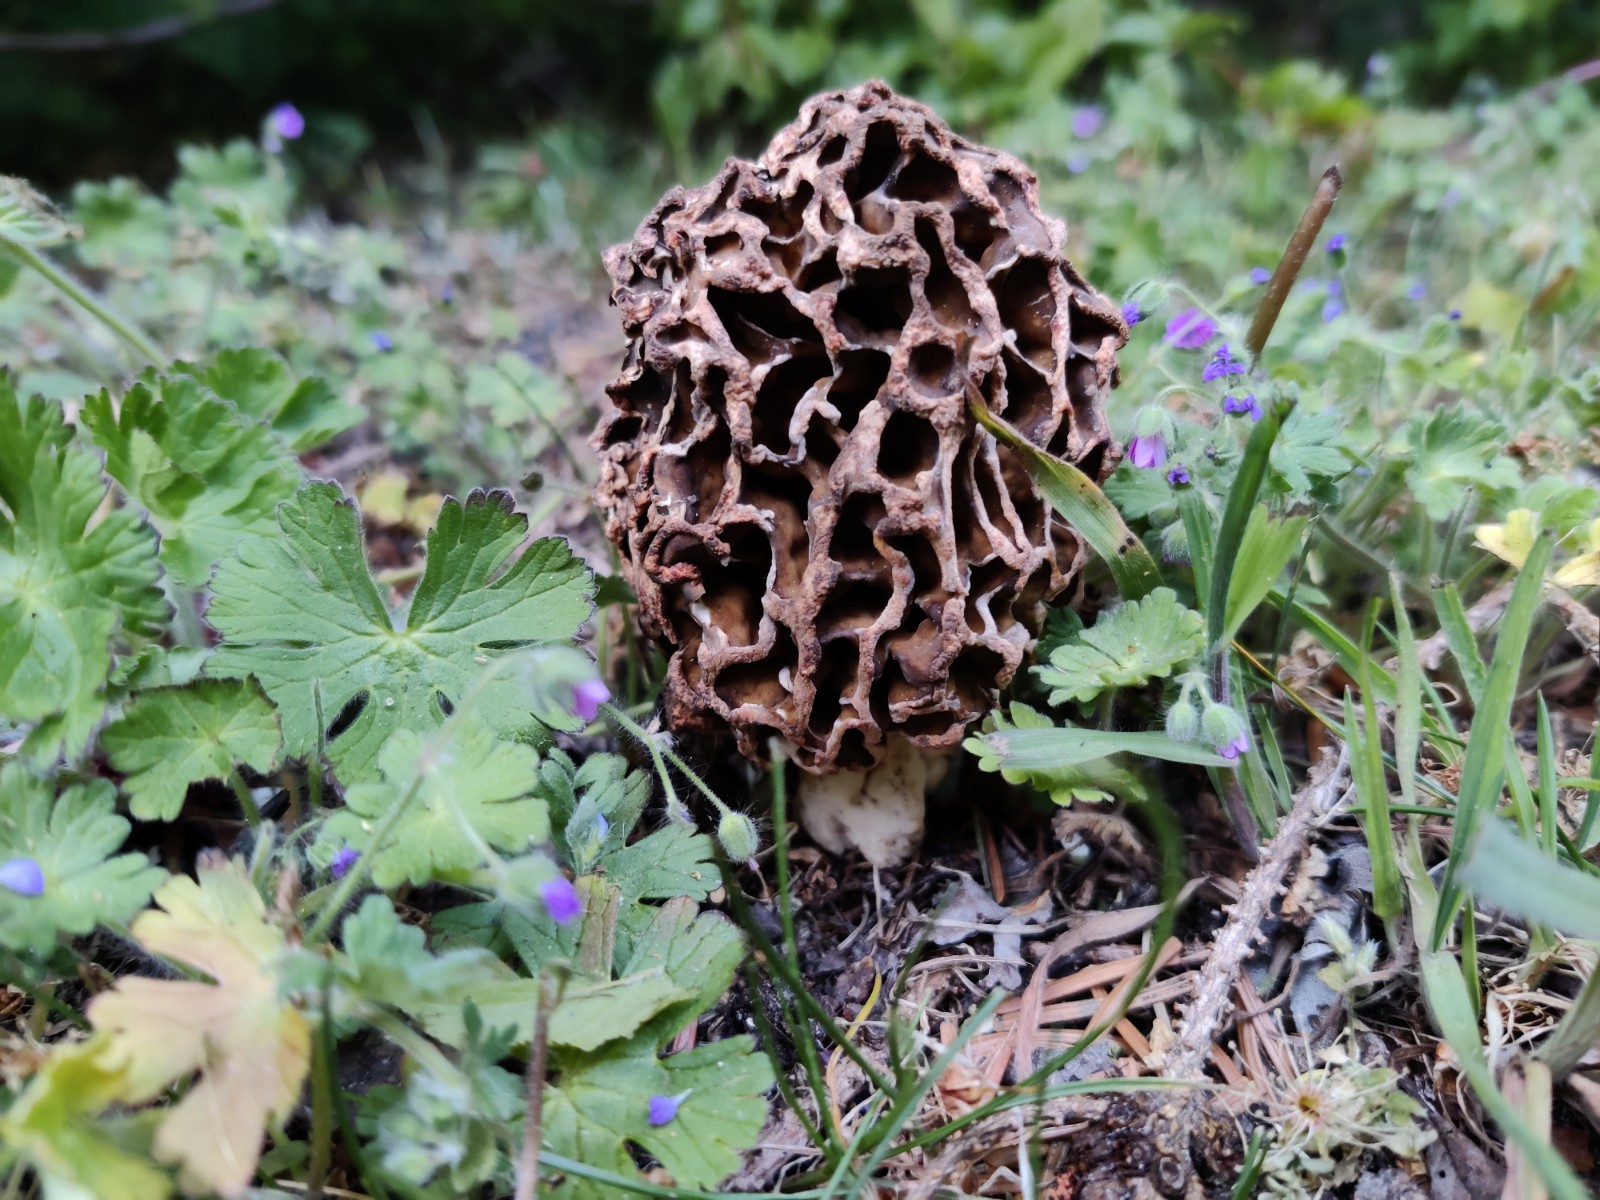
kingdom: Fungi
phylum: Ascomycota
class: Pezizomycetes
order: Pezizales
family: Morchellaceae
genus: Morchella
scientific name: Morchella
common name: morkel
